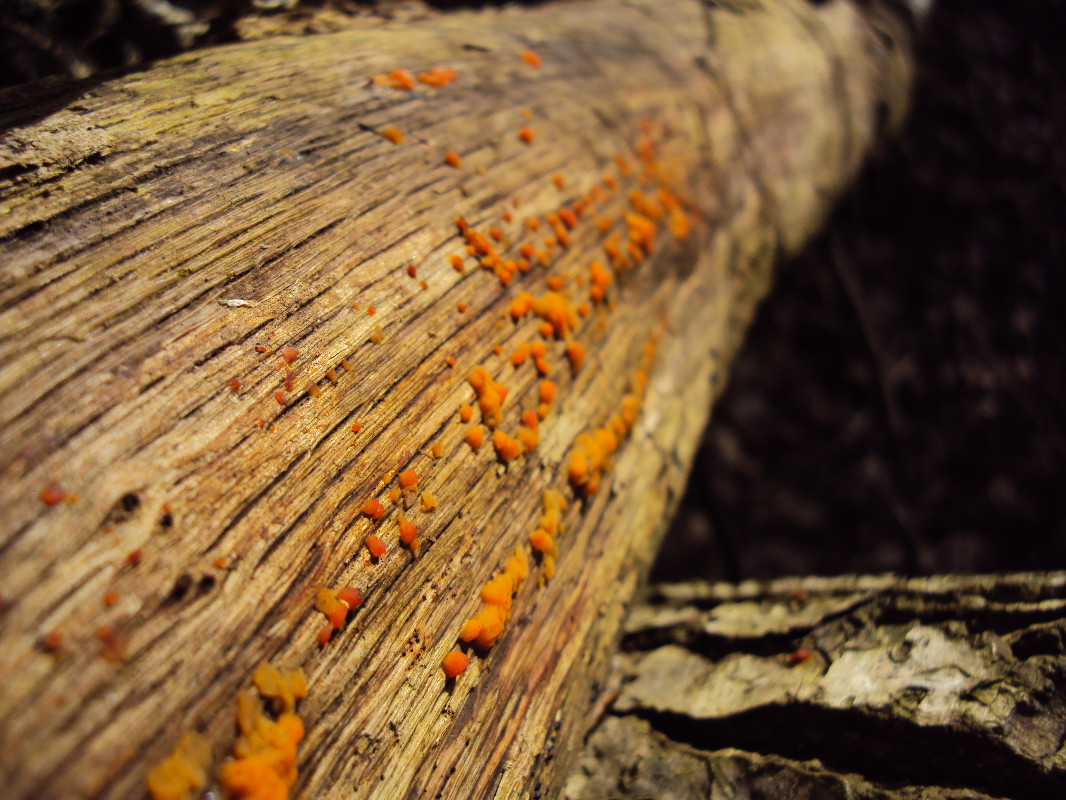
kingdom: Fungi
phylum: Basidiomycota
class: Dacrymycetes
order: Dacrymycetales
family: Dacrymycetaceae
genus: Dacrymyces
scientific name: Dacrymyces stillatus
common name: almindelig tåresvamp
